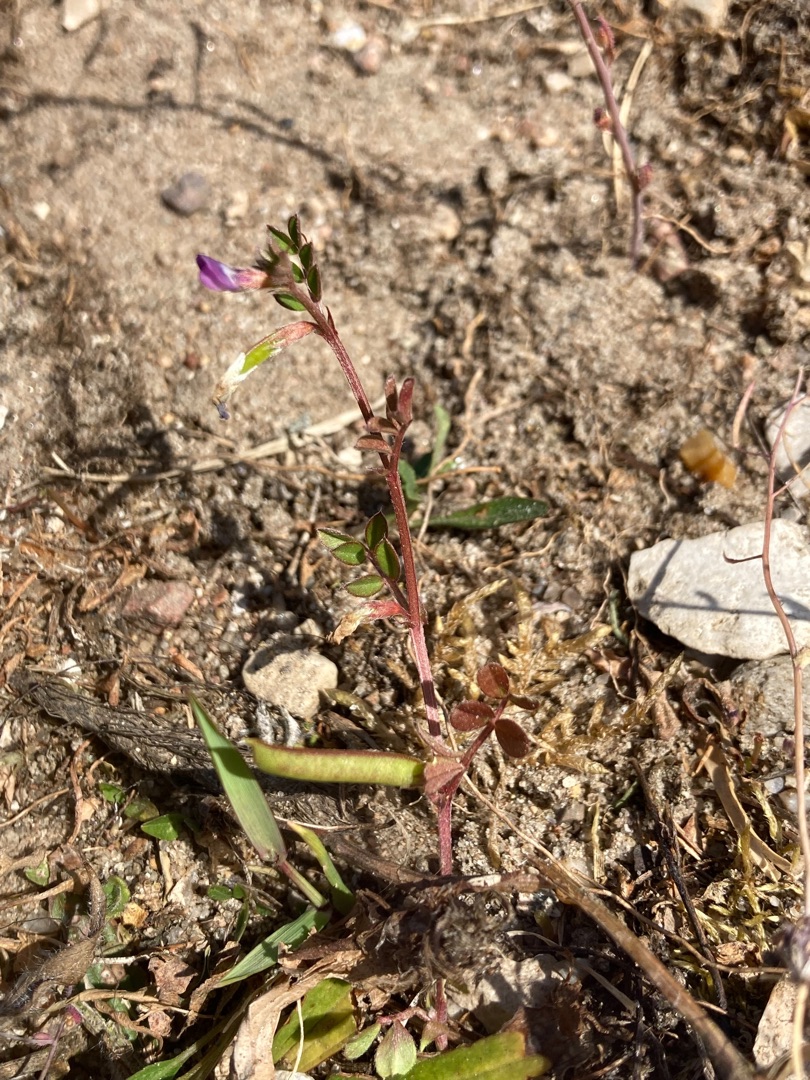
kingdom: Plantae
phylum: Tracheophyta
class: Magnoliopsida
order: Fabales
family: Fabaceae
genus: Vicia
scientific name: Vicia lathyroides
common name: Vår-vikke
